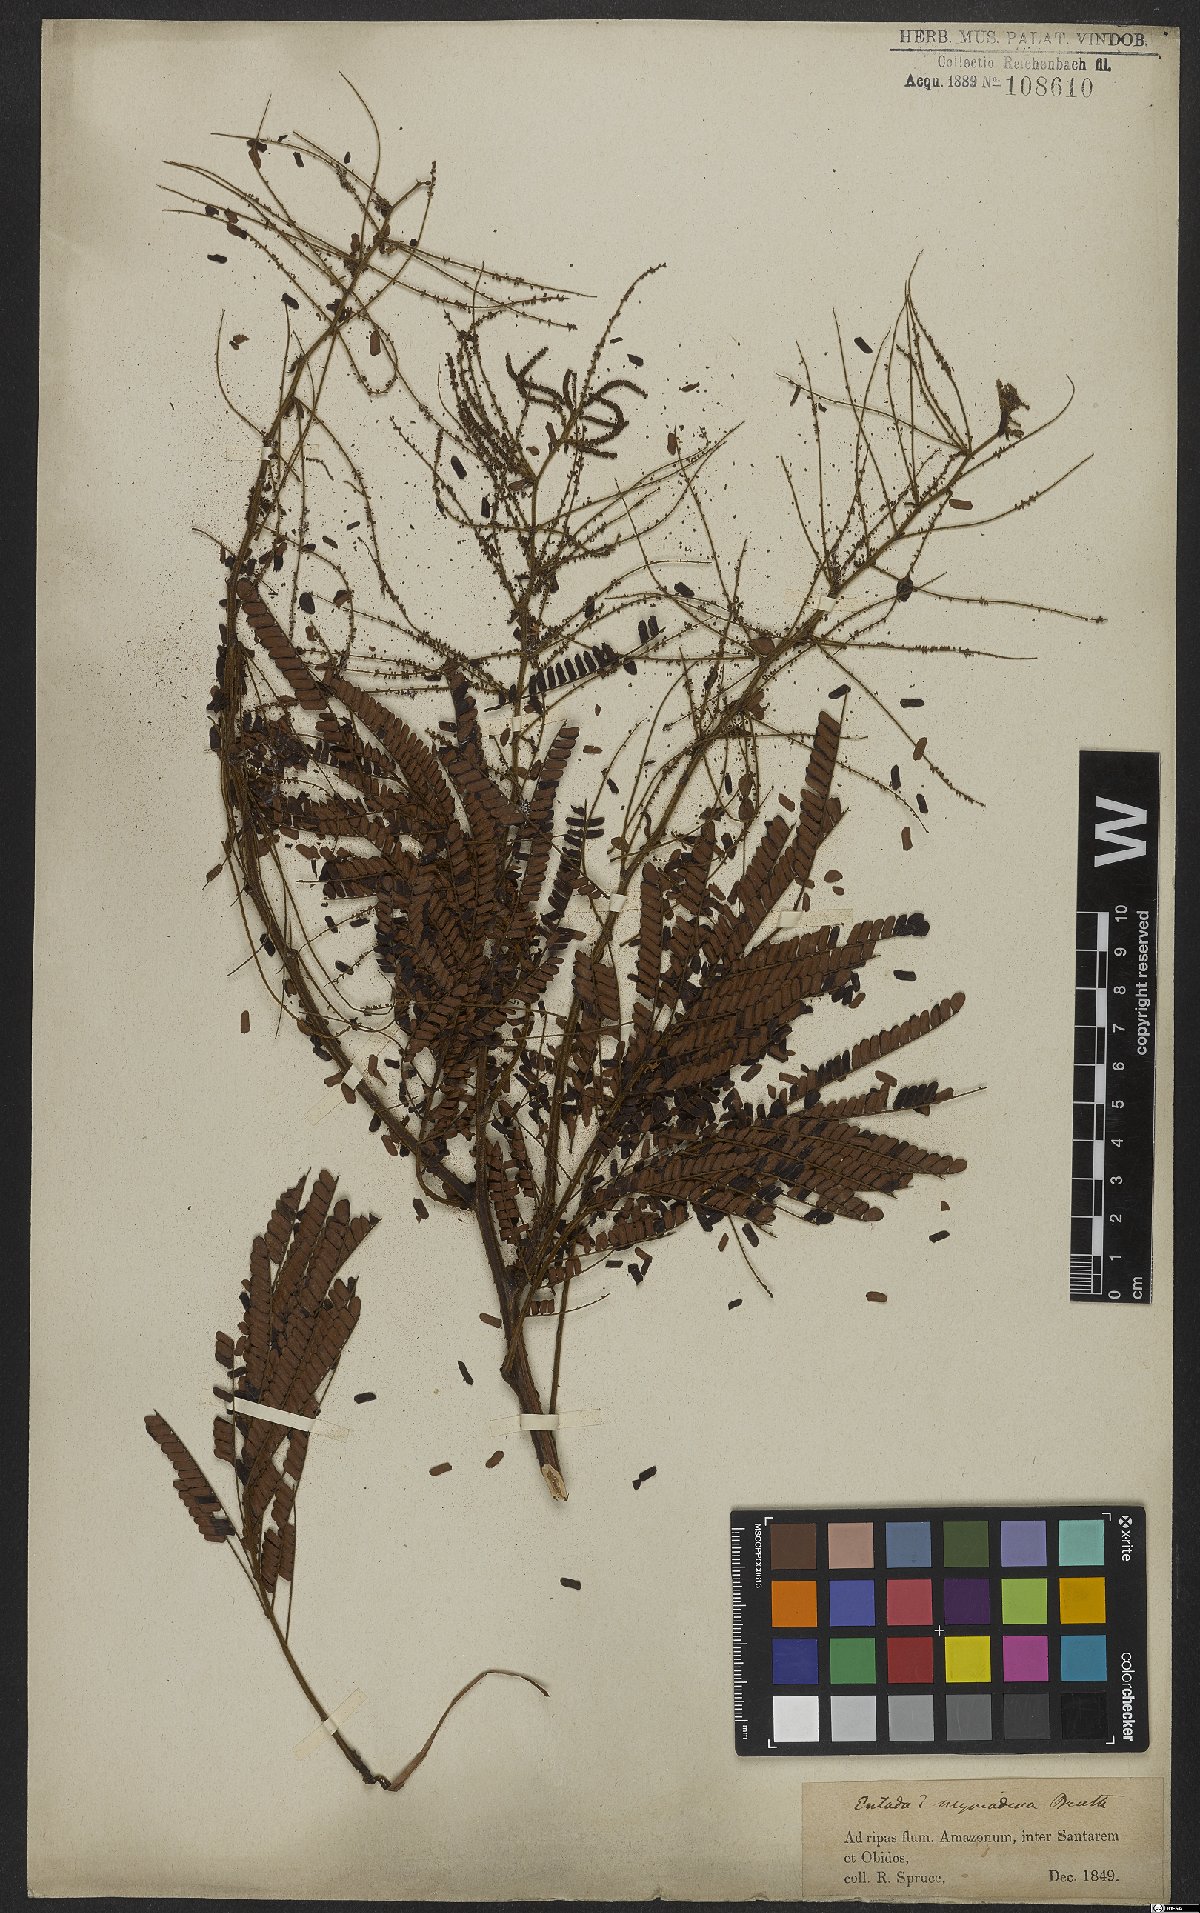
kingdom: Plantae
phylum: Tracheophyta
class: Magnoliopsida
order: Fabales
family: Fabaceae
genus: Mimosa
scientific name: Mimosa myriadenia
